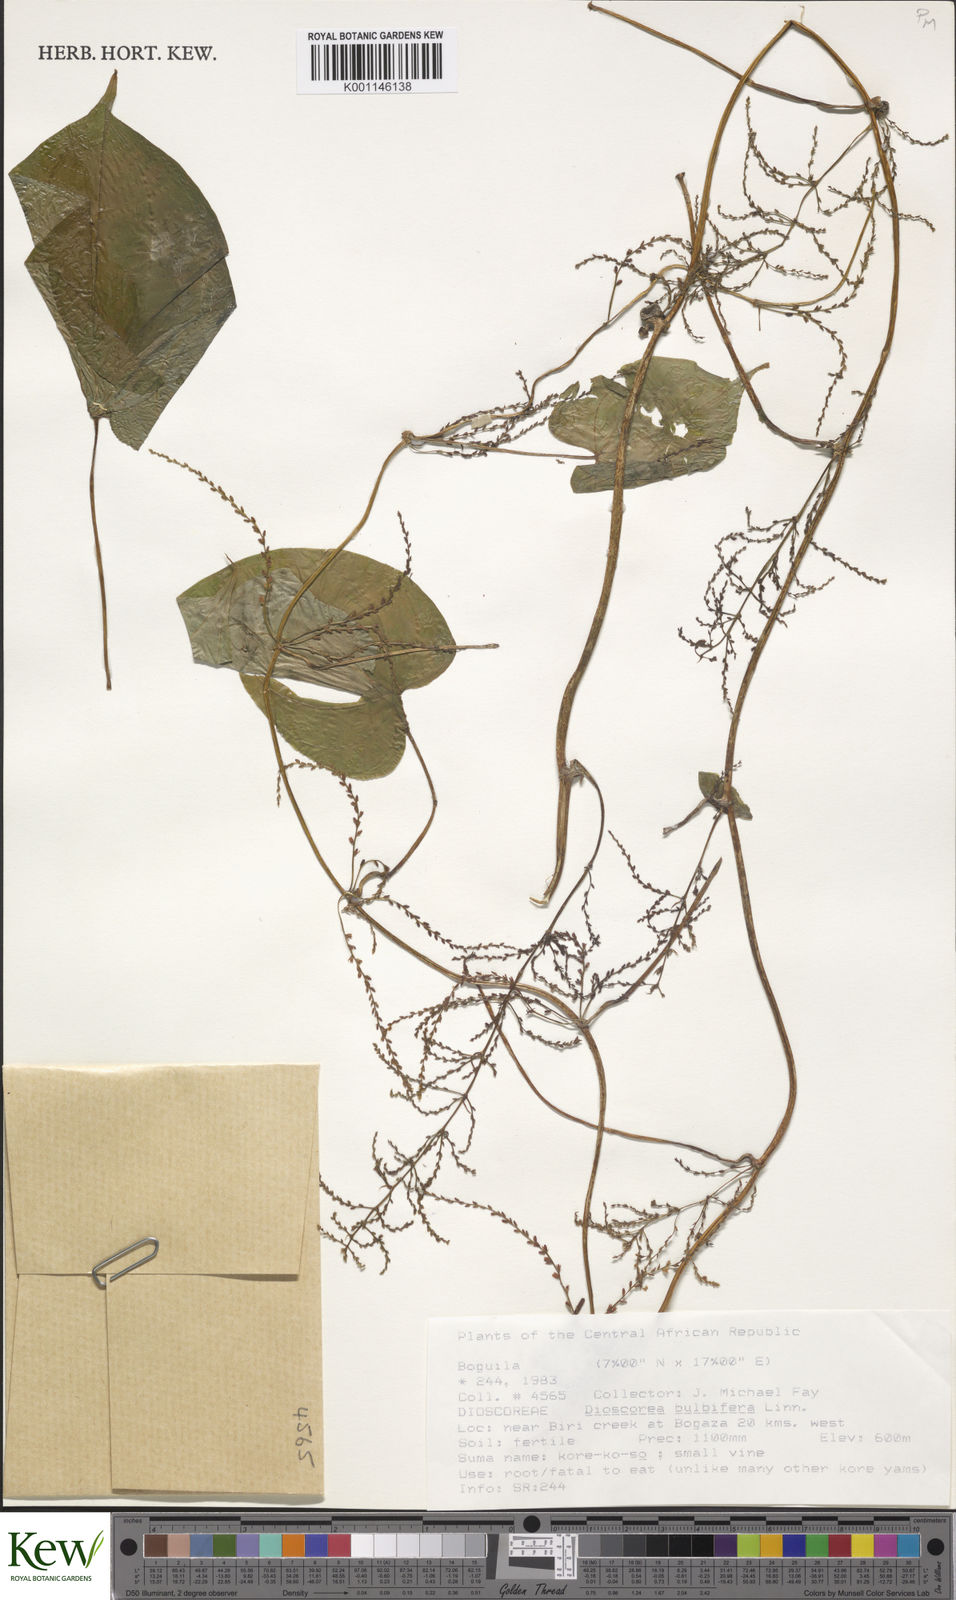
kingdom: Plantae
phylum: Tracheophyta
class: Liliopsida
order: Dioscoreales
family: Dioscoreaceae
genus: Dioscorea
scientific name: Dioscorea bulbifera
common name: Air yam
